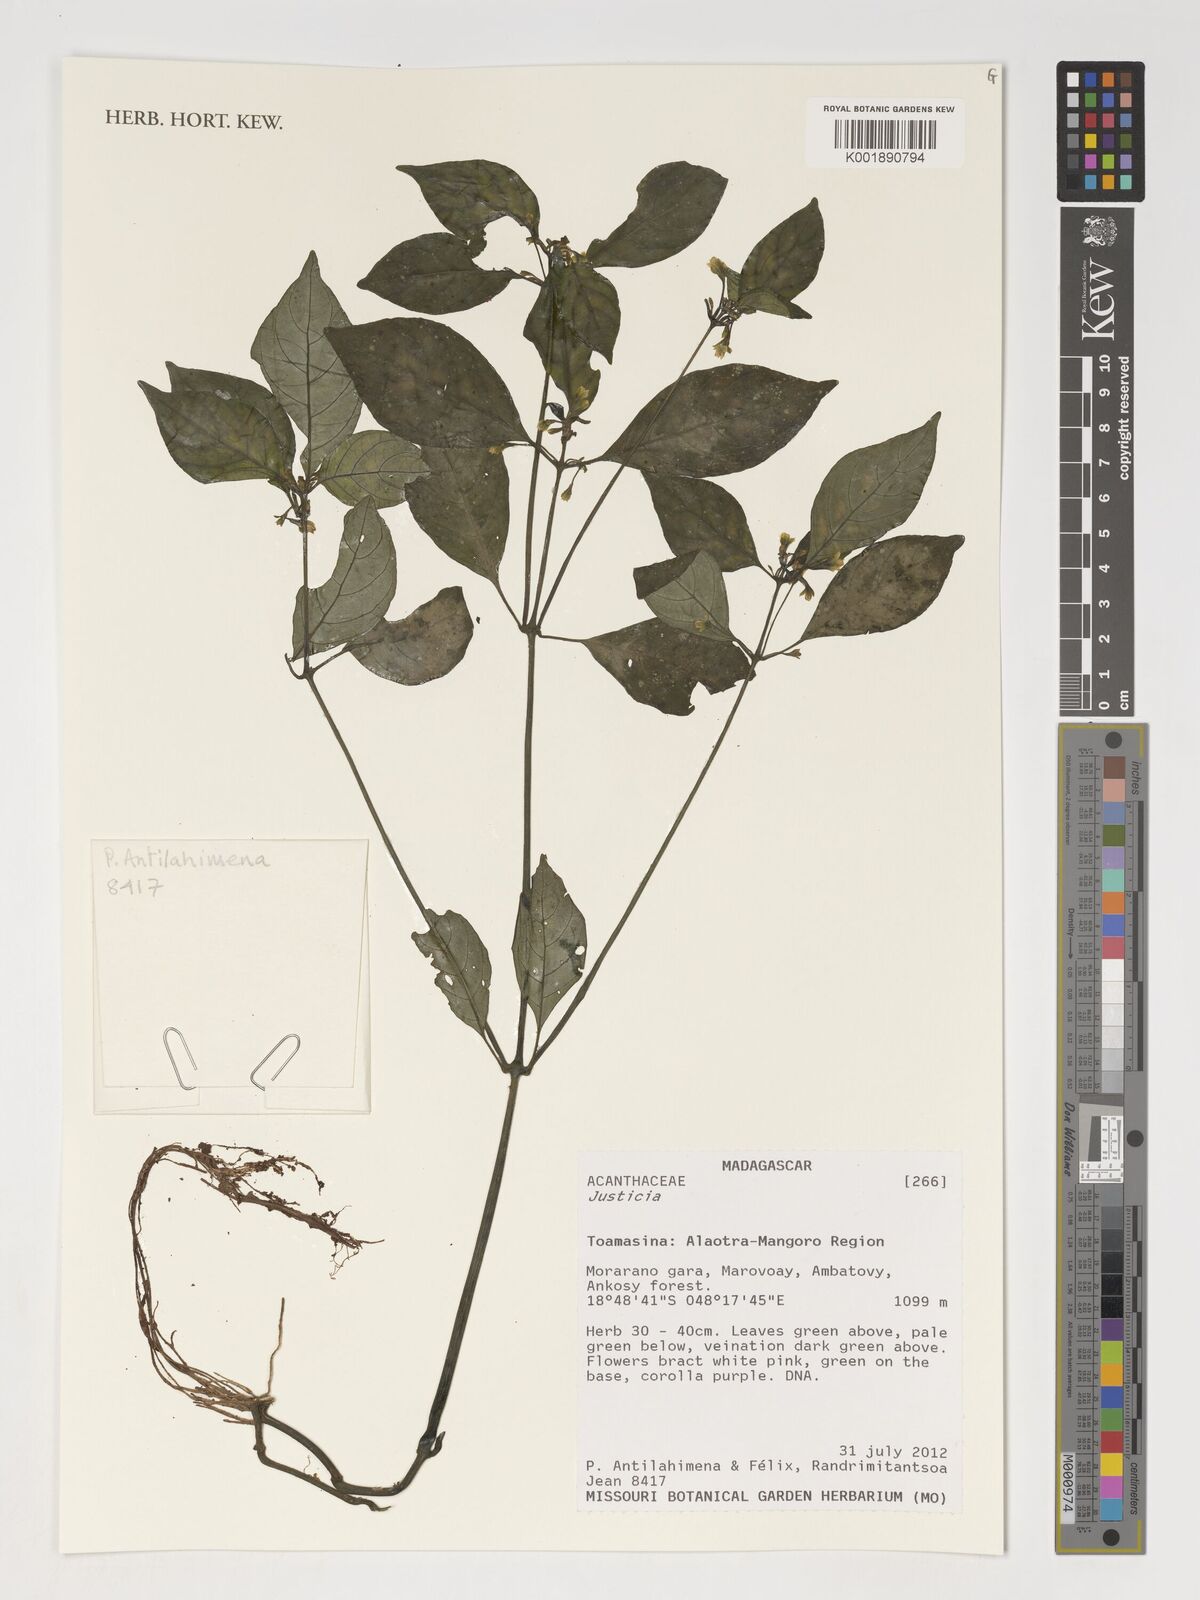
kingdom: Plantae
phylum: Tracheophyta
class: Magnoliopsida
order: Lamiales
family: Acanthaceae
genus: Justicia
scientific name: Justicia
